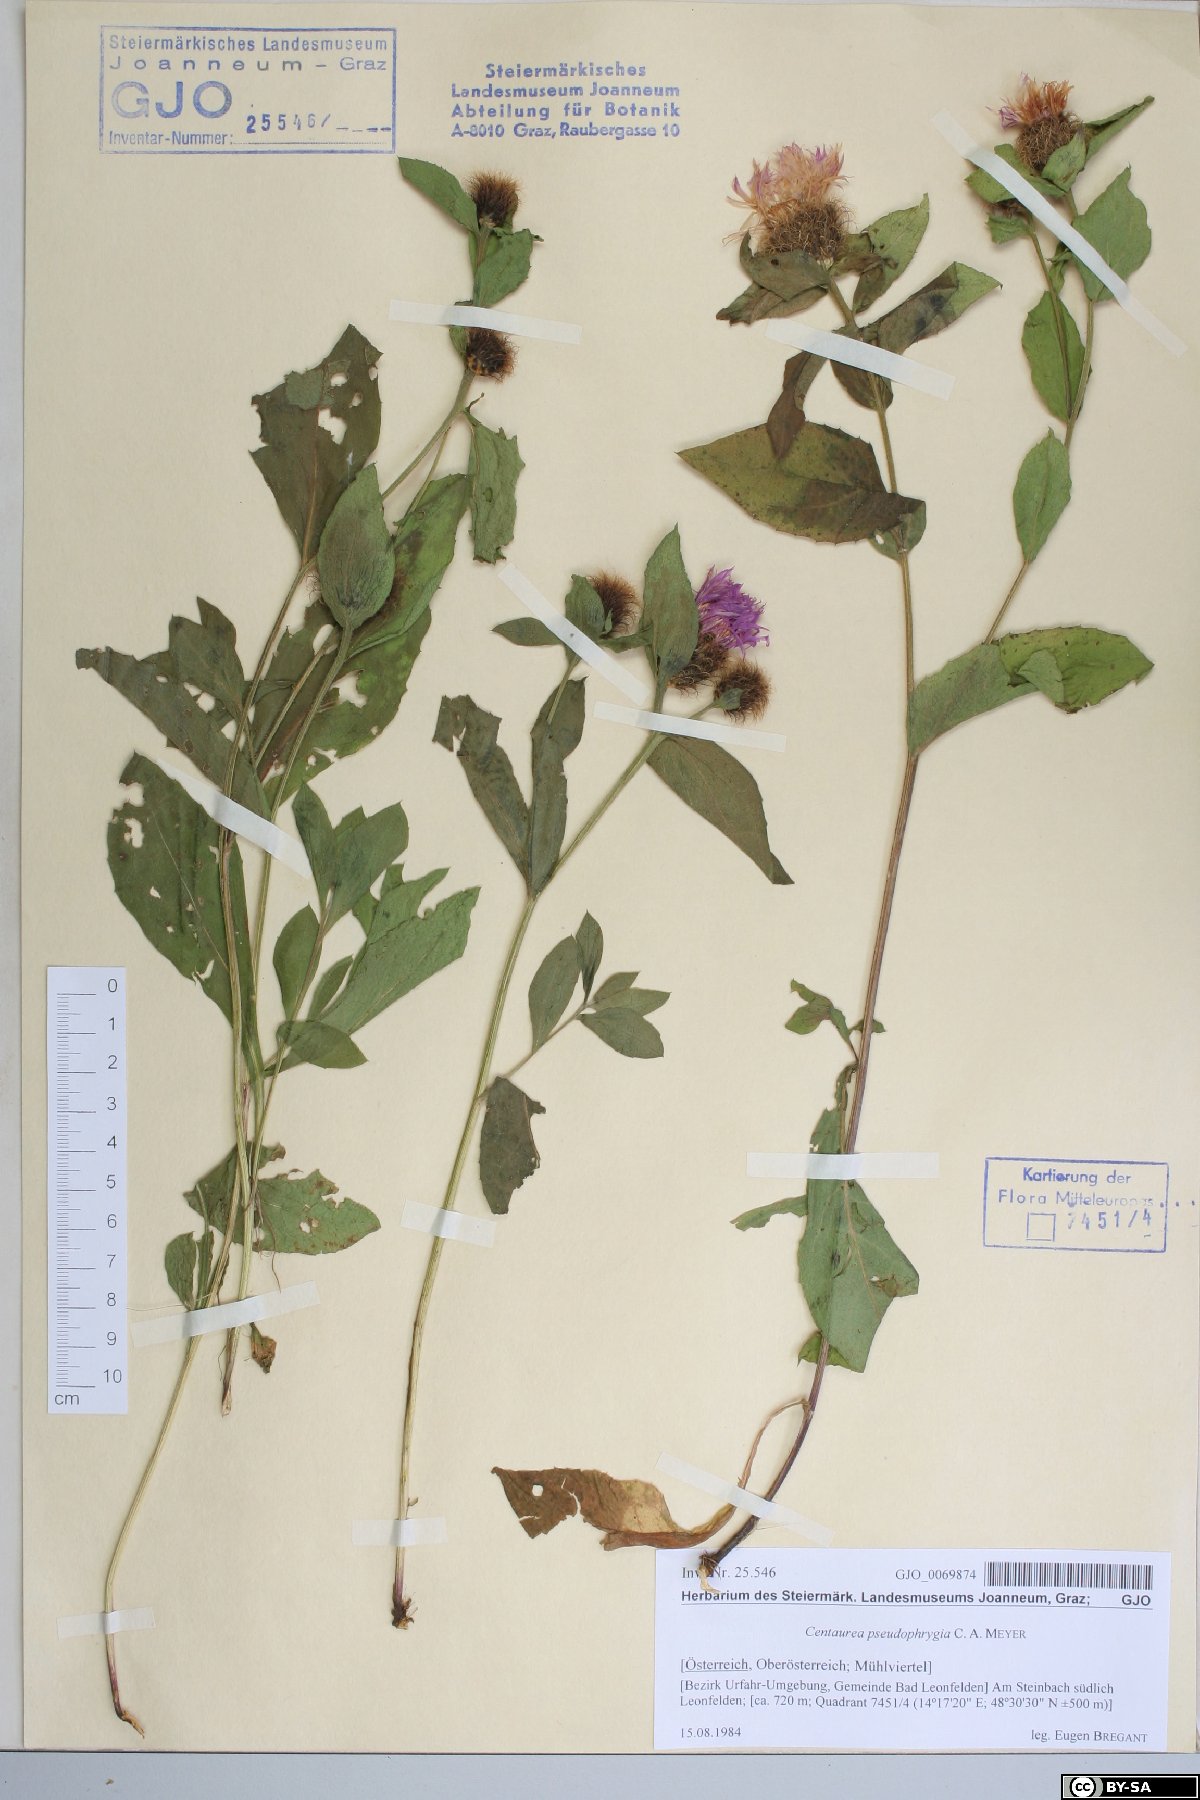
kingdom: Plantae
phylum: Tracheophyta
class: Magnoliopsida
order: Asterales
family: Asteraceae
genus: Centaurea
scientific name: Centaurea pseudophrygia
